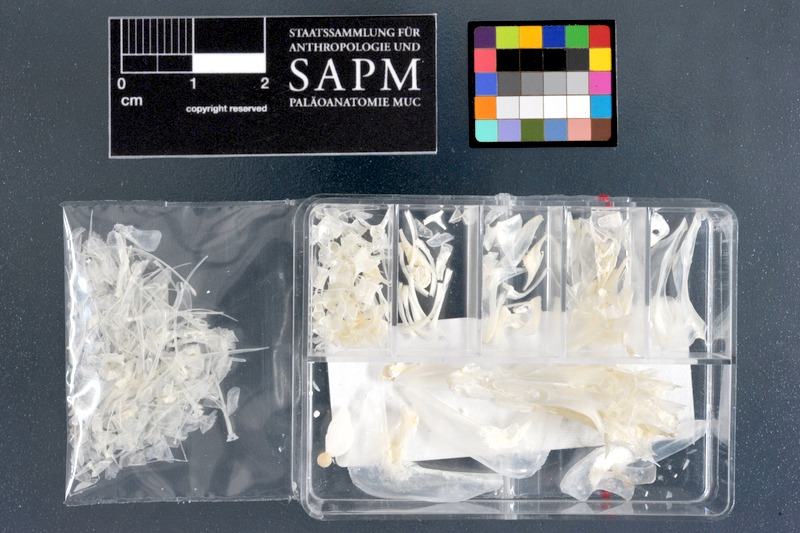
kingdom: Animalia
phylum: Chordata
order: Perciformes
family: Sillaginidae
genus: Sillago
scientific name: Sillago sihama
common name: Silver sillago
